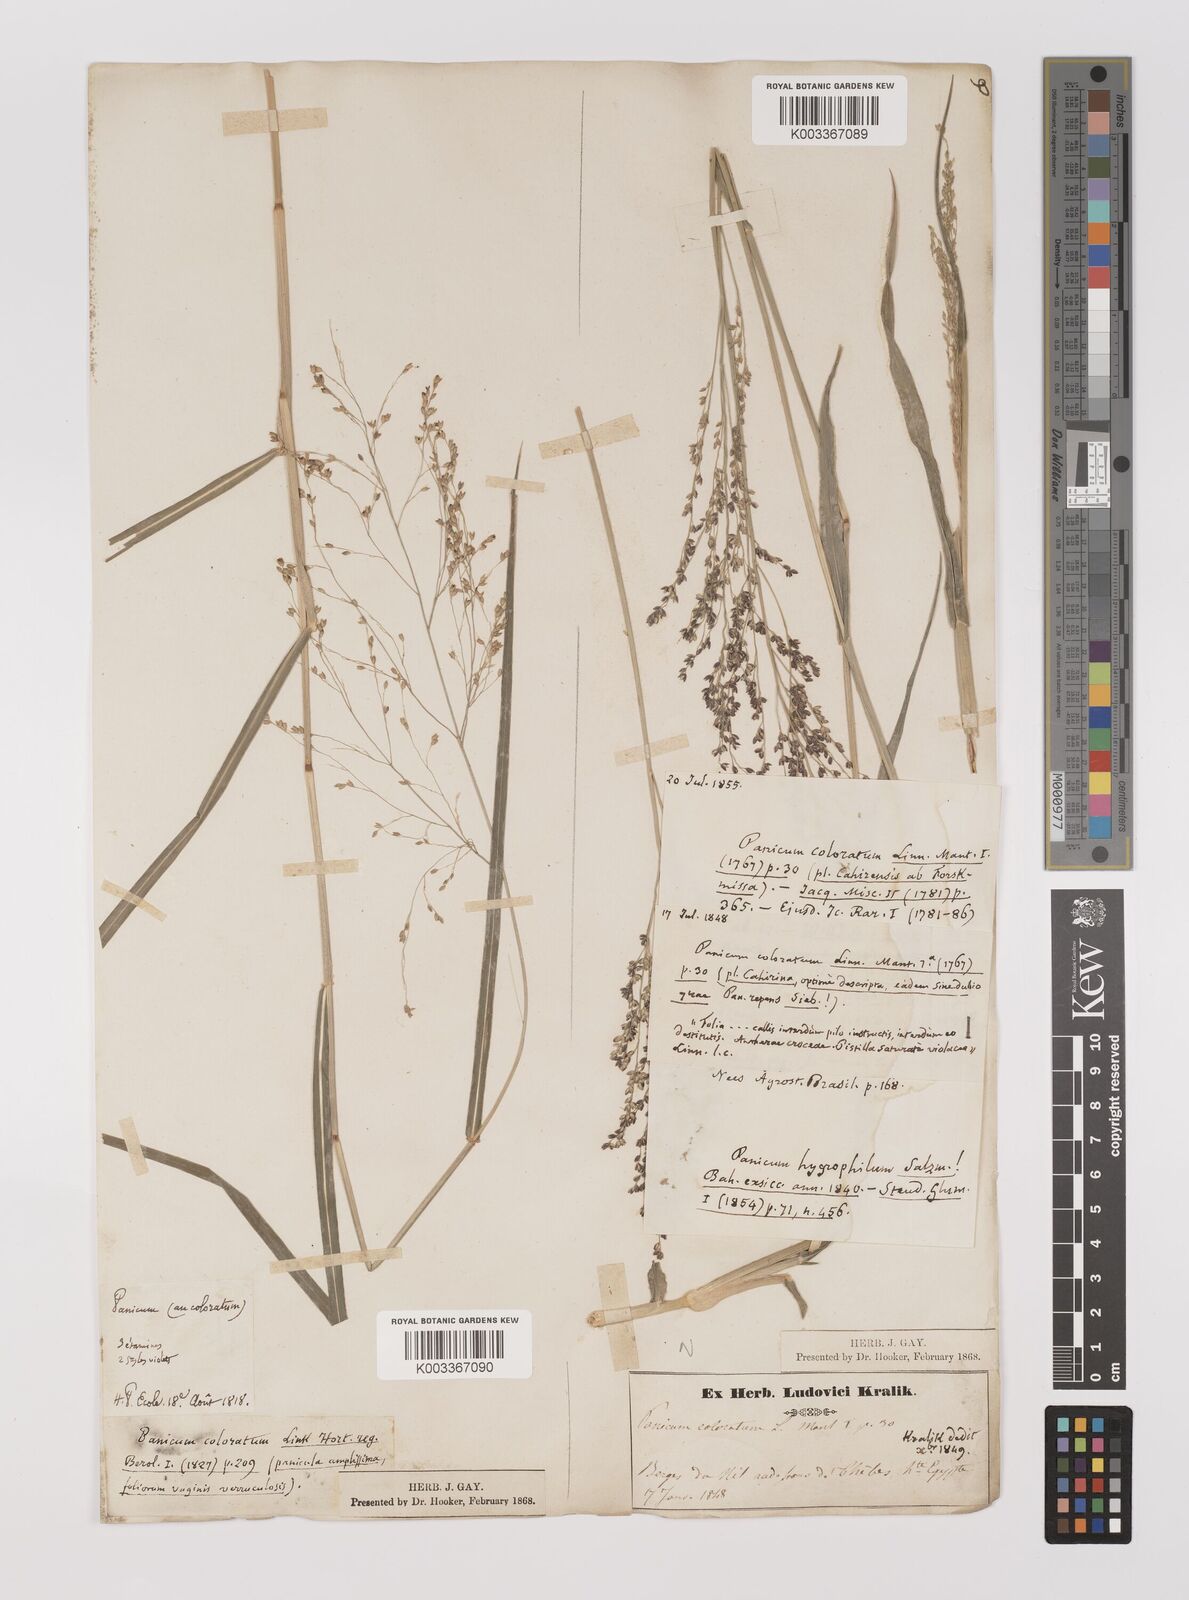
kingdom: Plantae
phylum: Tracheophyta
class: Liliopsida
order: Poales
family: Poaceae
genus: Panicum
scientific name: Panicum coloratum
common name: Kleingrass
